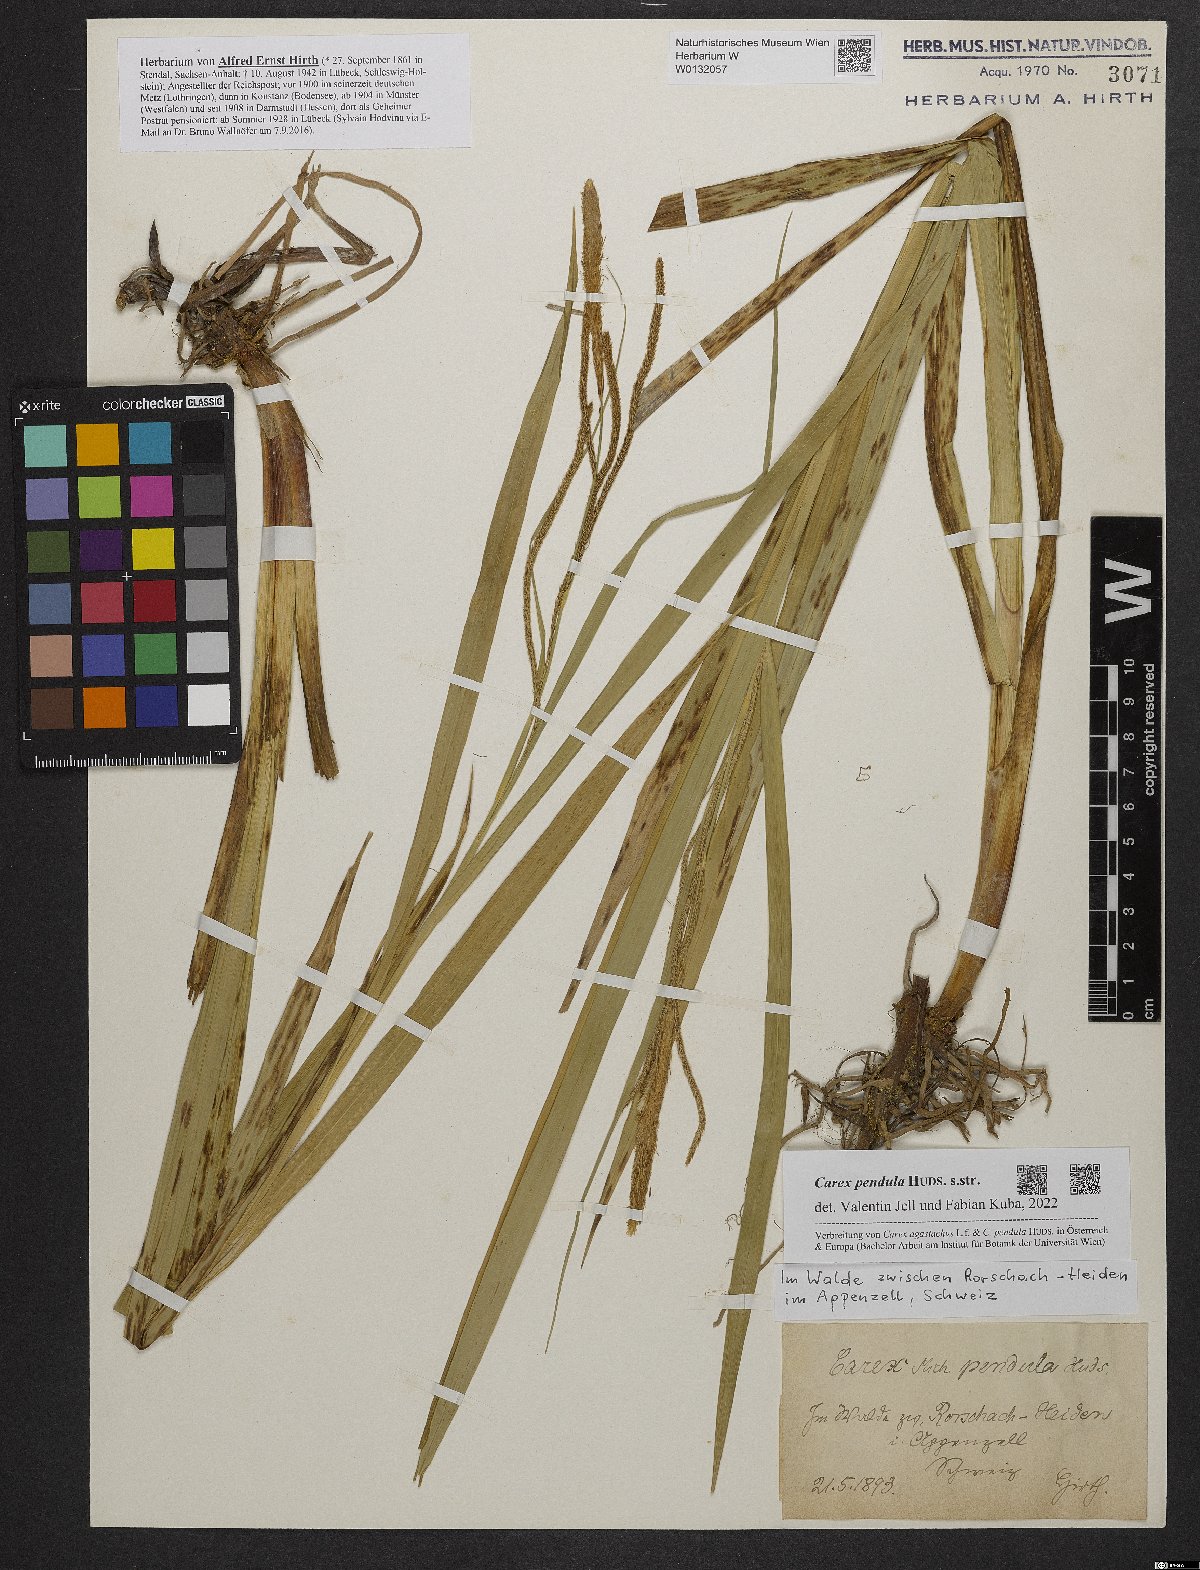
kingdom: Plantae
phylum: Tracheophyta
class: Liliopsida
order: Poales
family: Cyperaceae
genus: Carex
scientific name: Carex pendula
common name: Pendulous sedge
